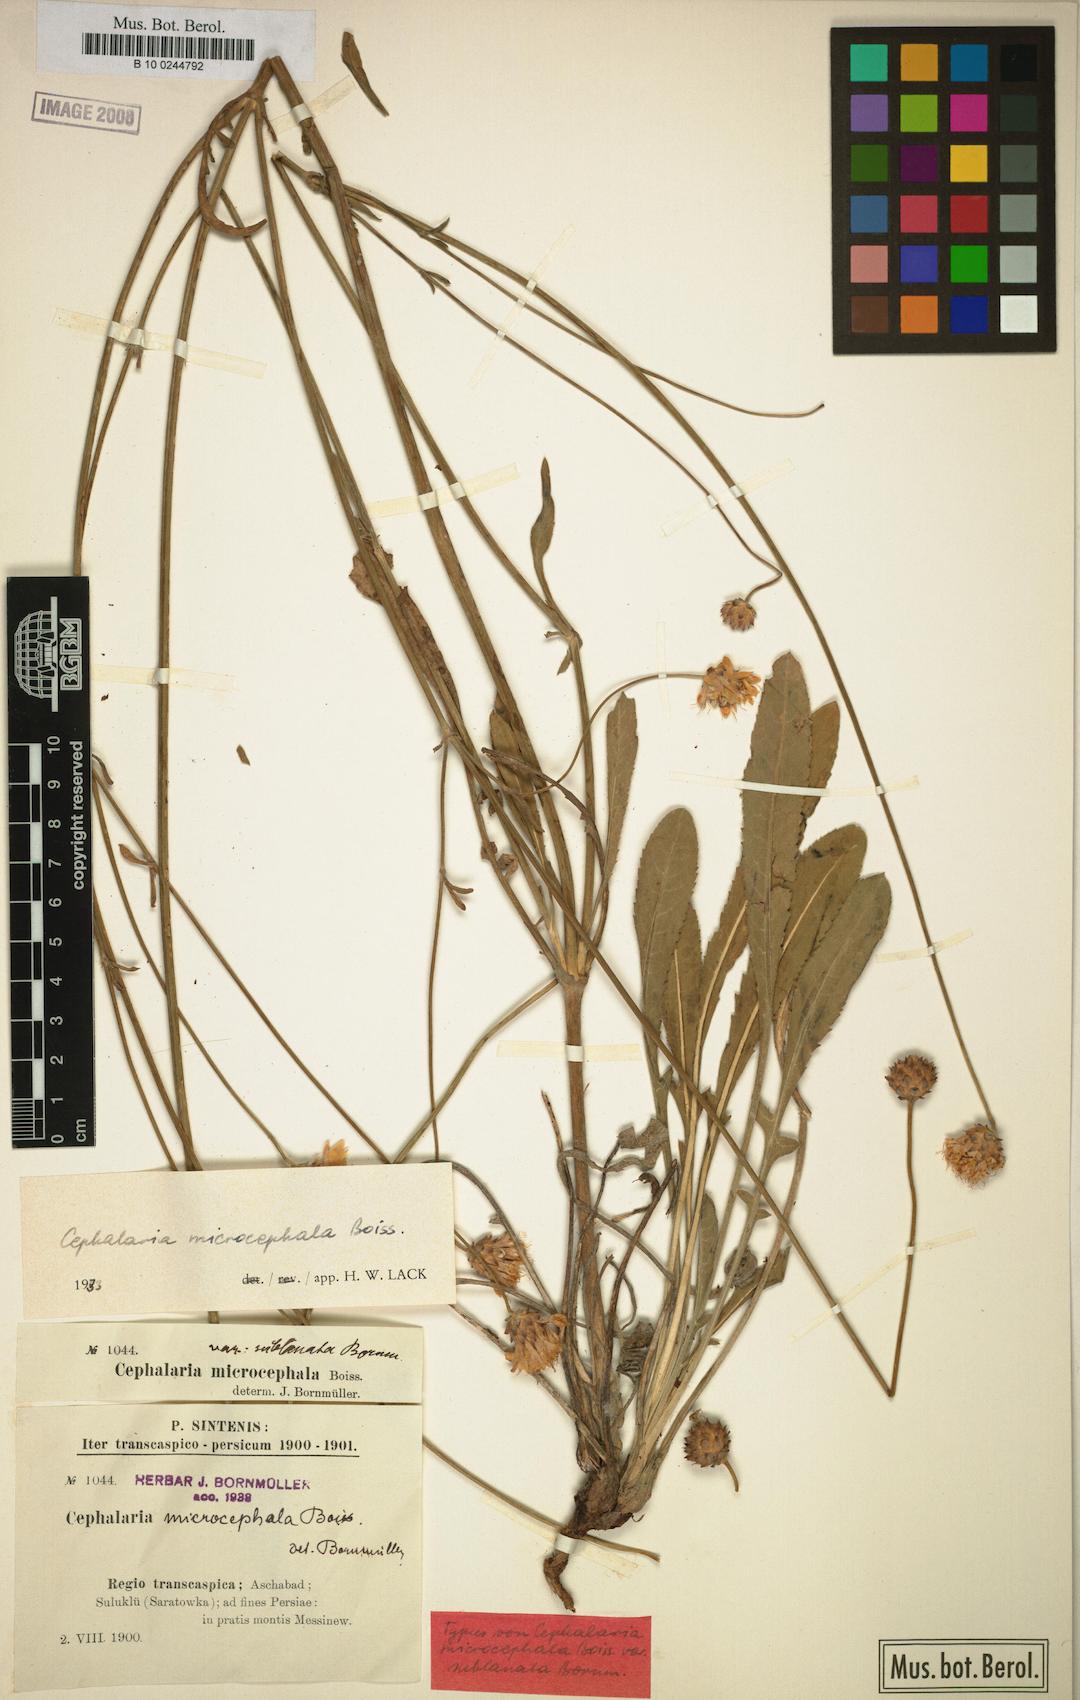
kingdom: Plantae
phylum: Tracheophyta
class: Magnoliopsida
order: Dipsacales
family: Caprifoliaceae
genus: Cephalaria
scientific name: Cephalaria microcephala
